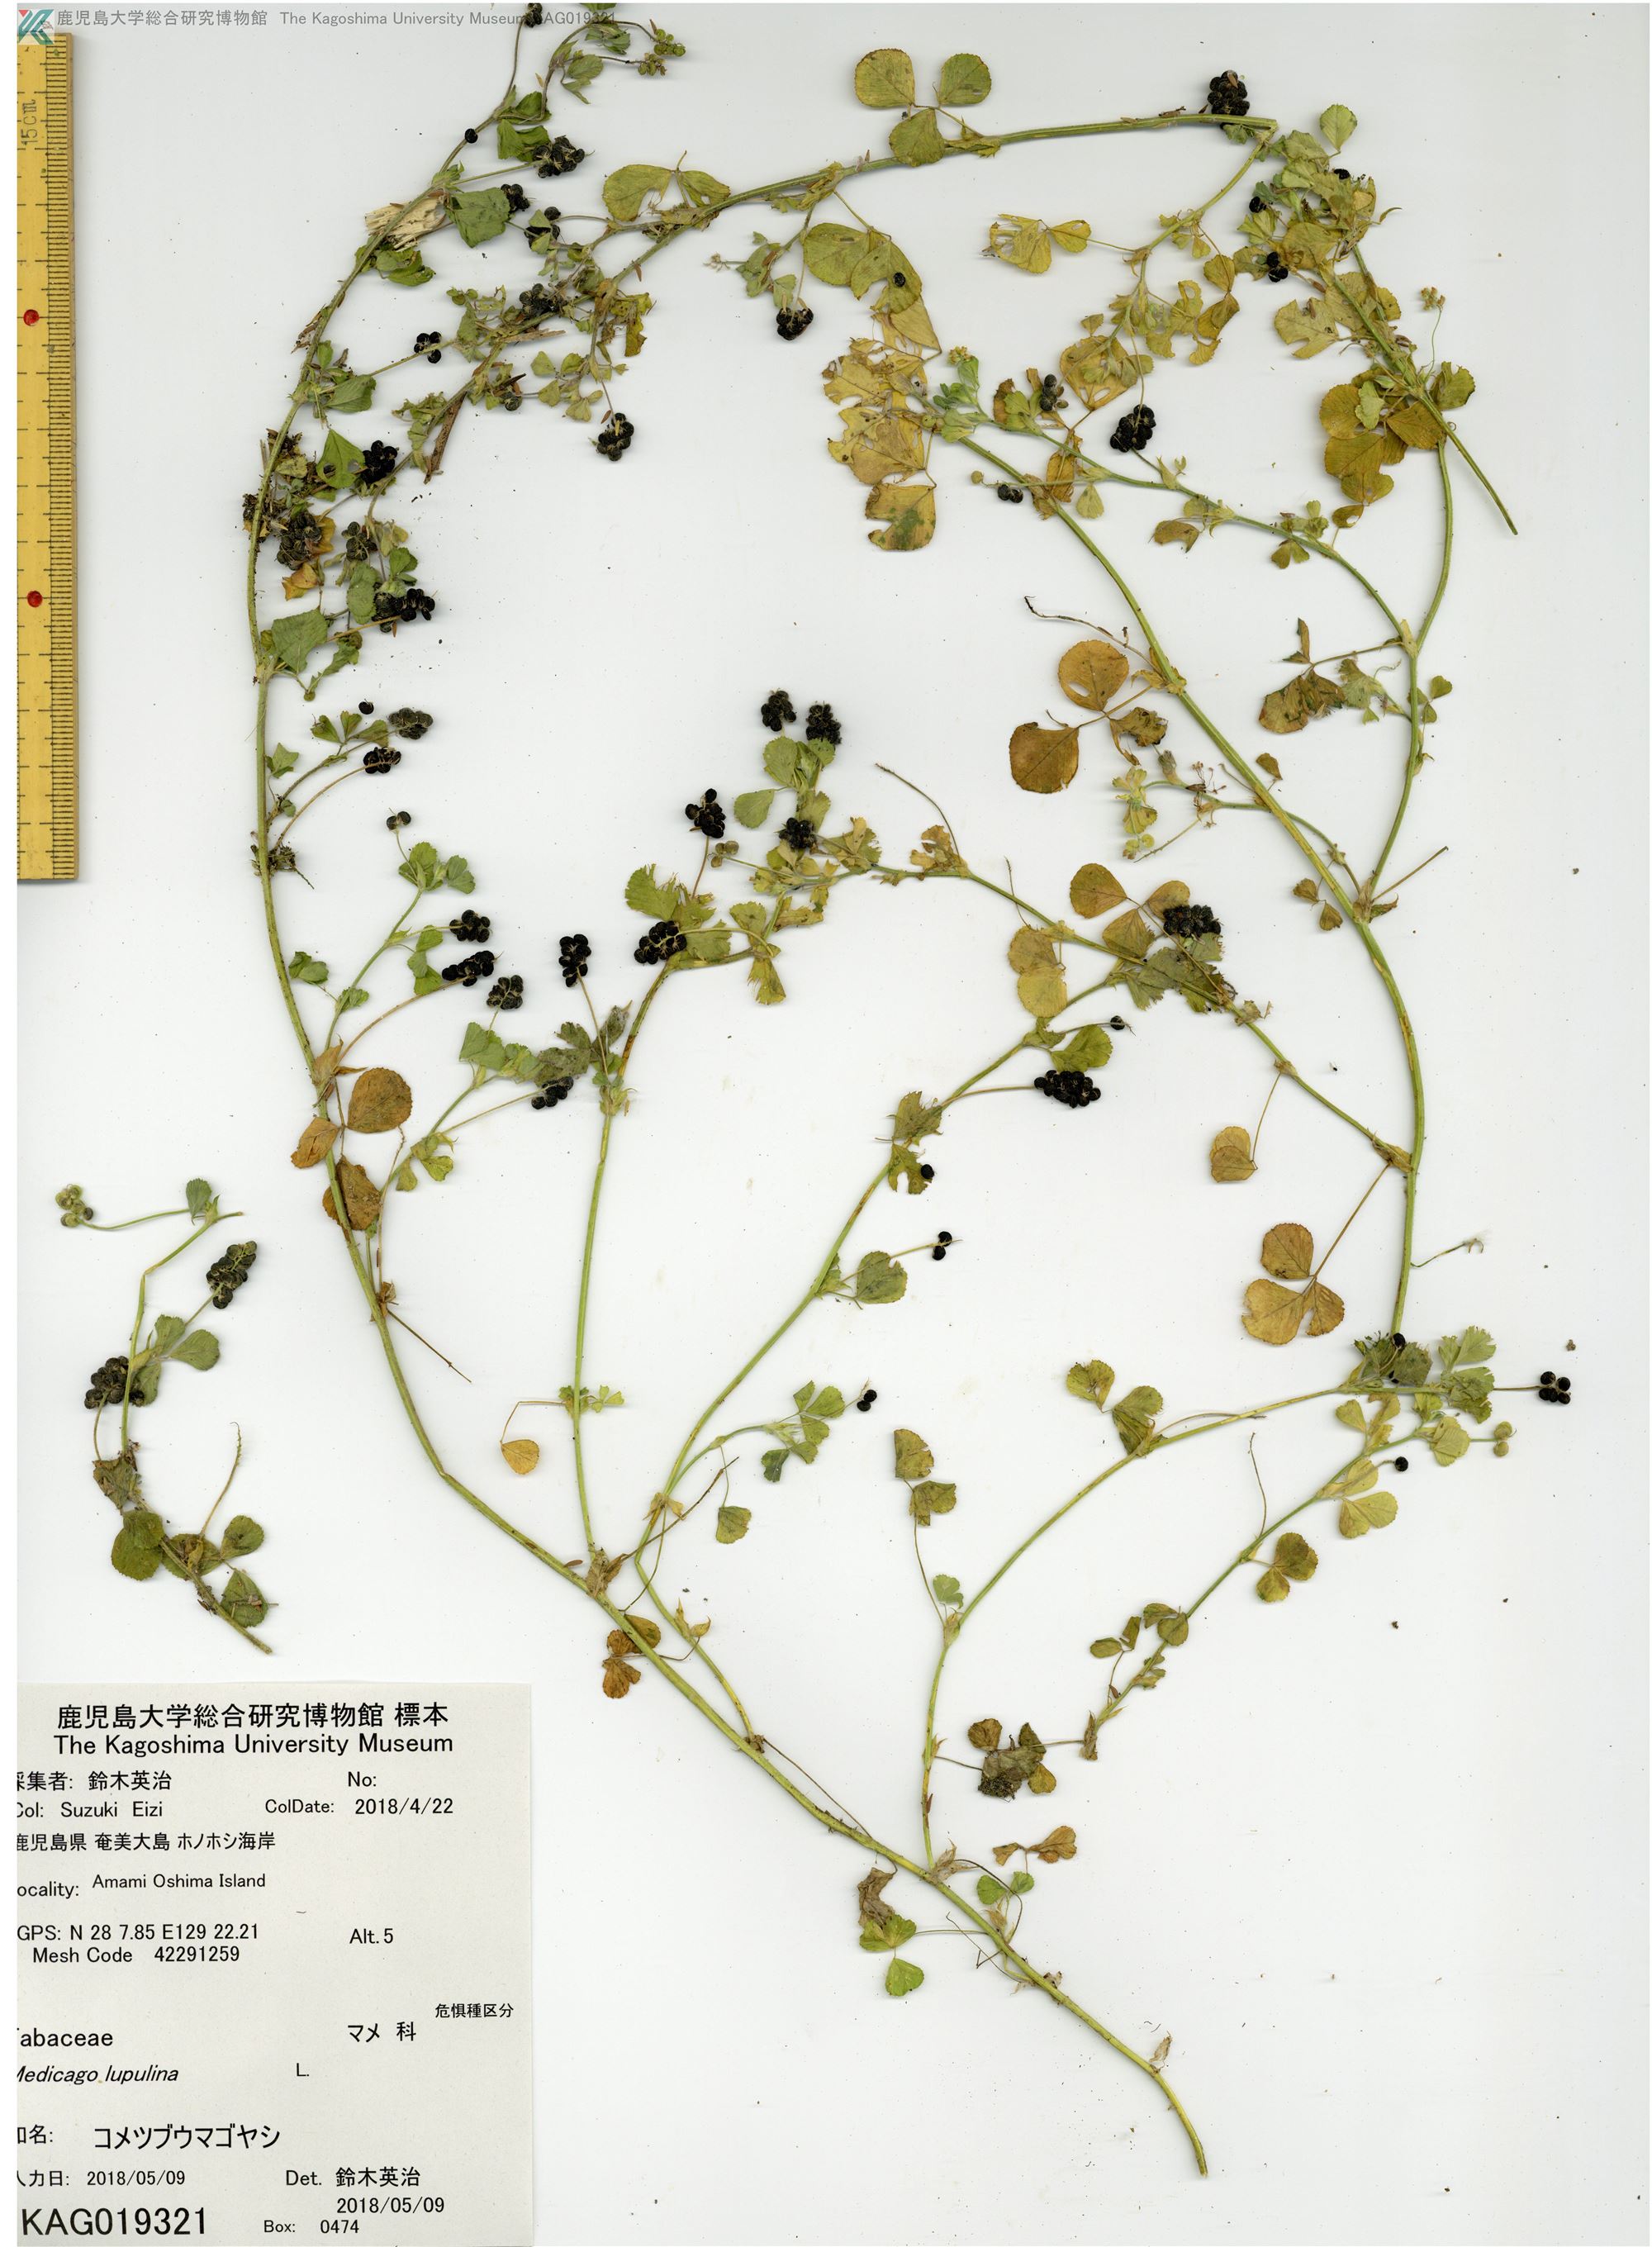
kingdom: Plantae
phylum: Tracheophyta
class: Magnoliopsida
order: Fabales
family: Fabaceae
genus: Medicago
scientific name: Medicago lupulina
